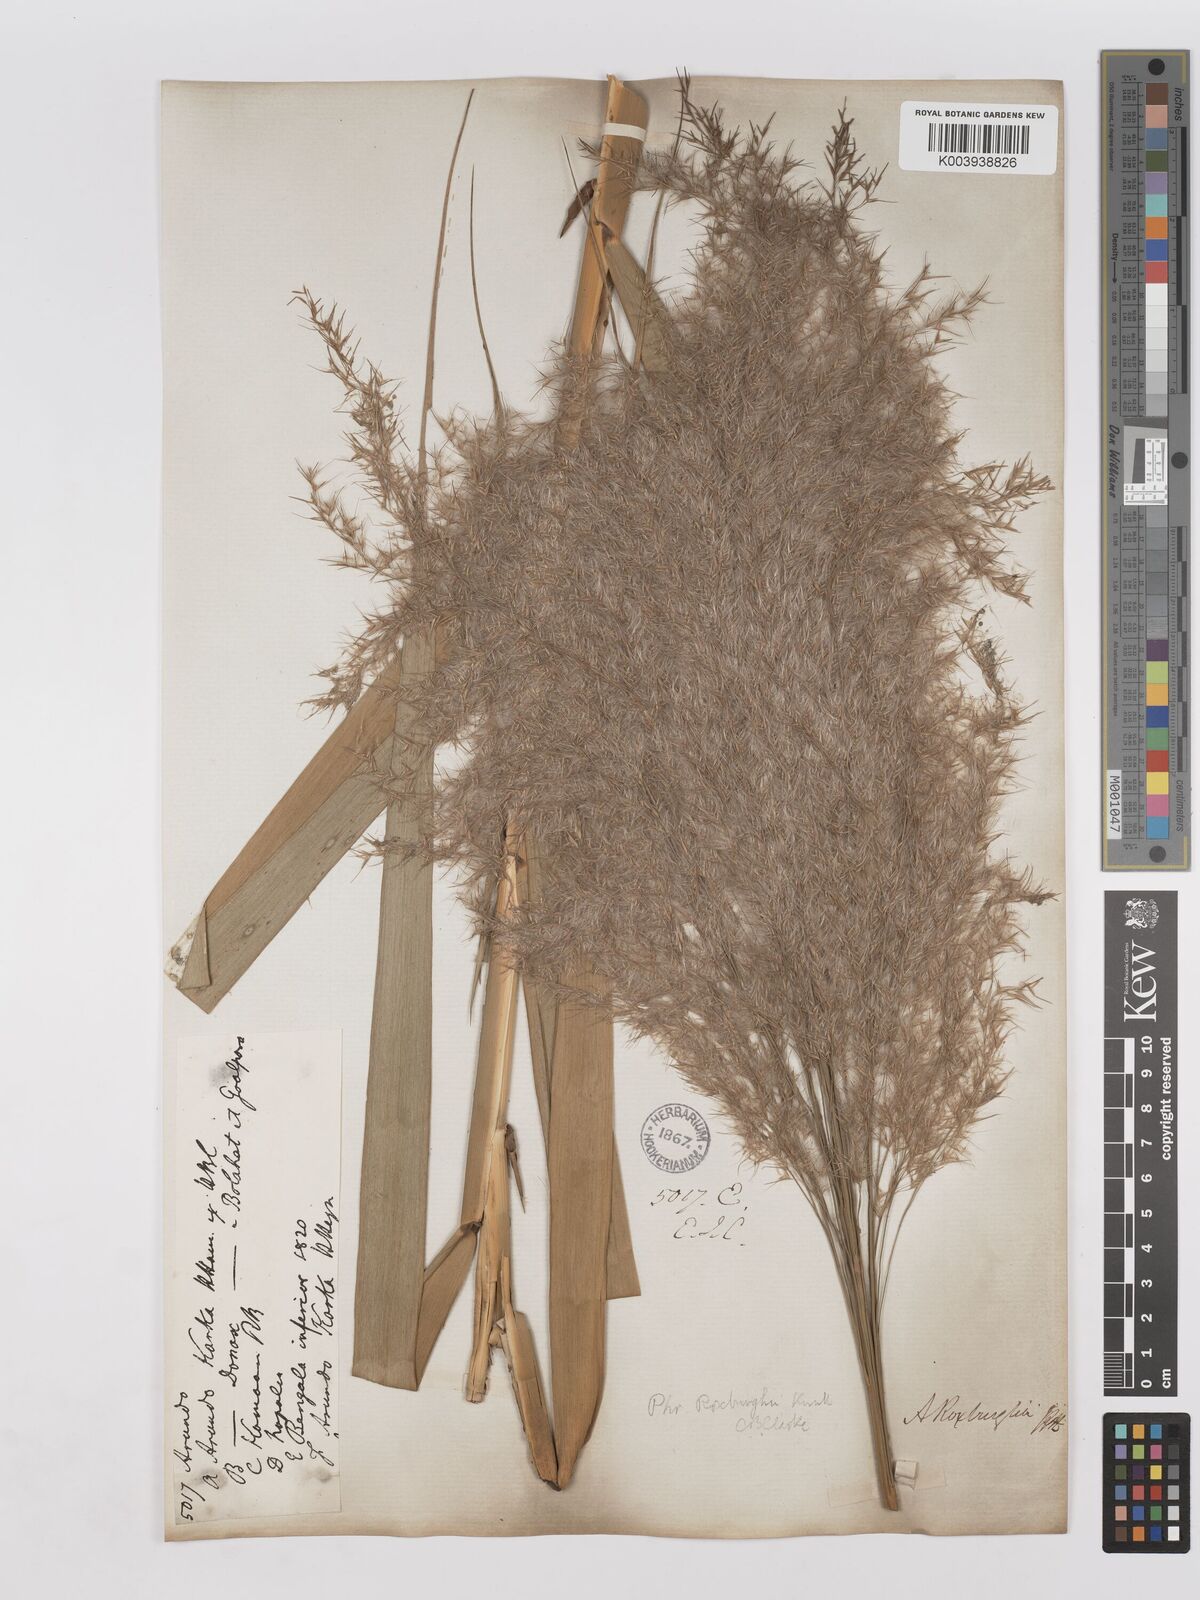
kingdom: Plantae
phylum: Tracheophyta
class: Liliopsida
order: Poales
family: Poaceae
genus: Phragmites
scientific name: Phragmites karka
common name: Tropical reed
